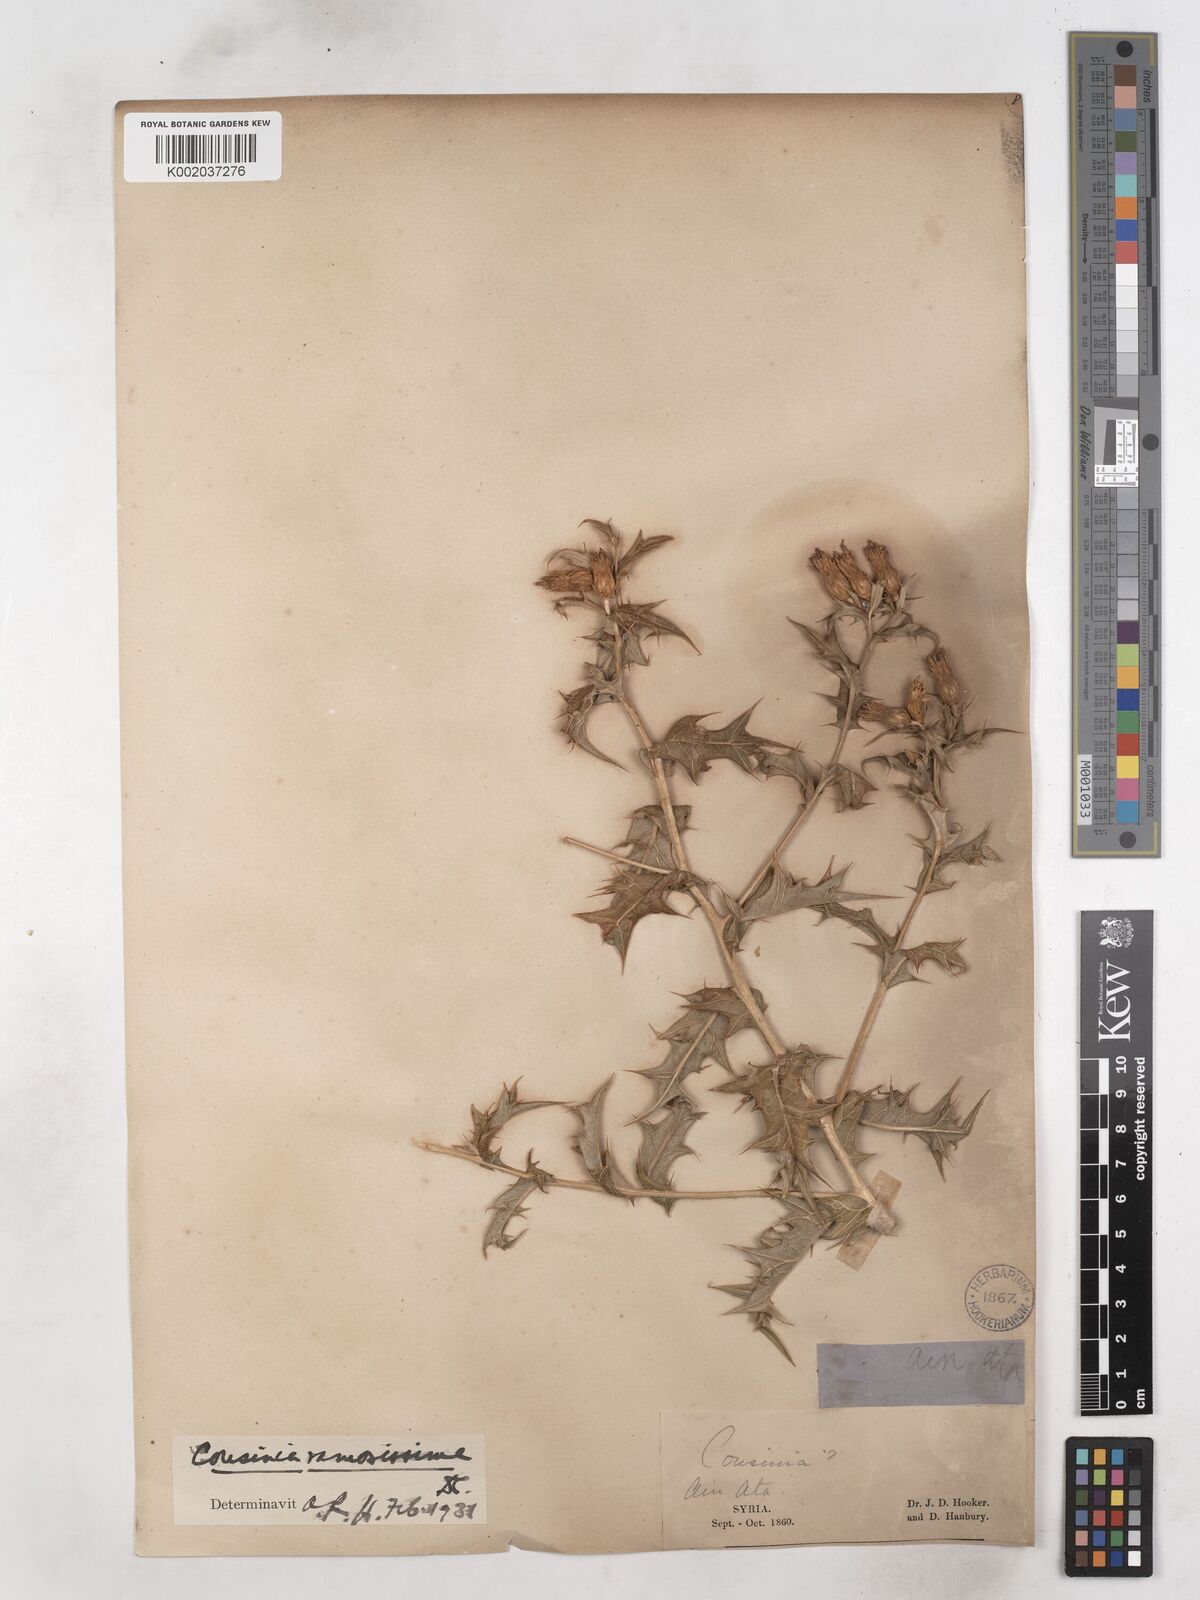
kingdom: Plantae
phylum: Tracheophyta
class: Magnoliopsida
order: Asterales
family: Asteraceae
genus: Cousinia
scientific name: Cousinia ramosissima
